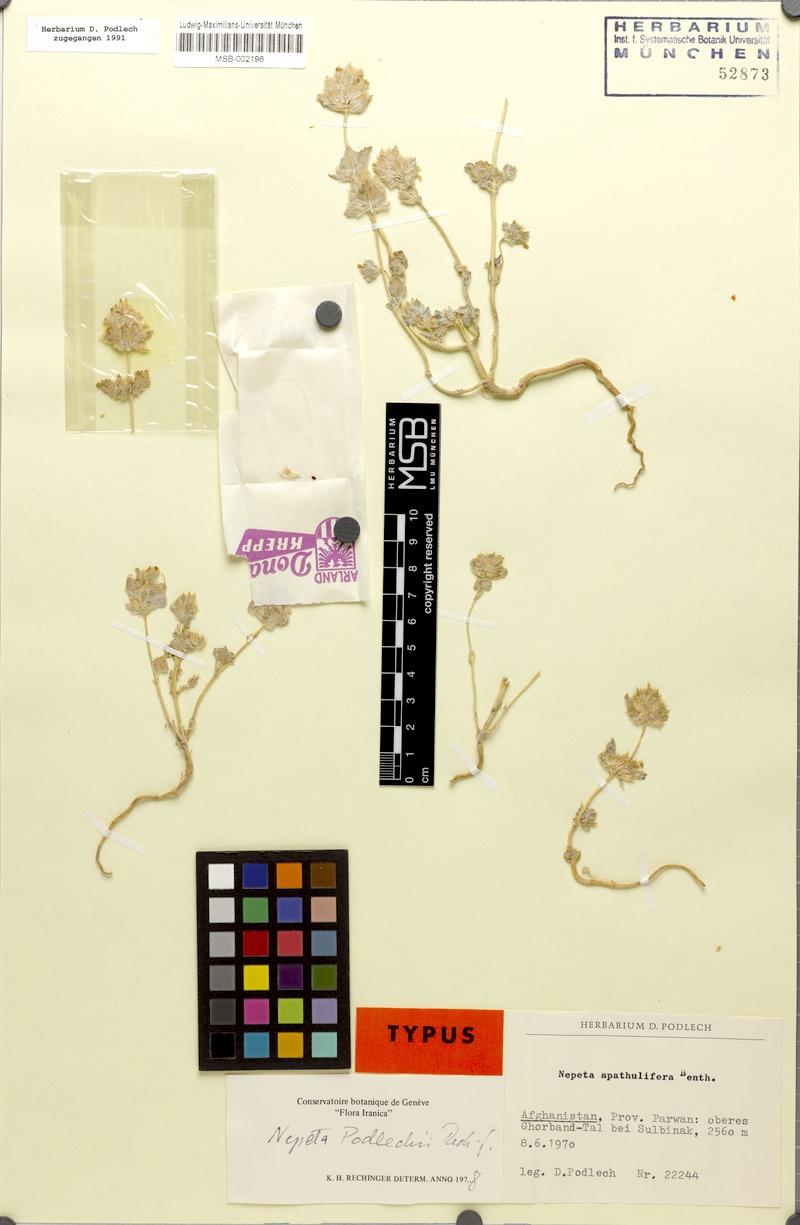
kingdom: Plantae
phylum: Tracheophyta
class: Magnoliopsida
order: Lamiales
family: Lamiaceae
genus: Nepeta
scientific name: Nepeta podlechii
